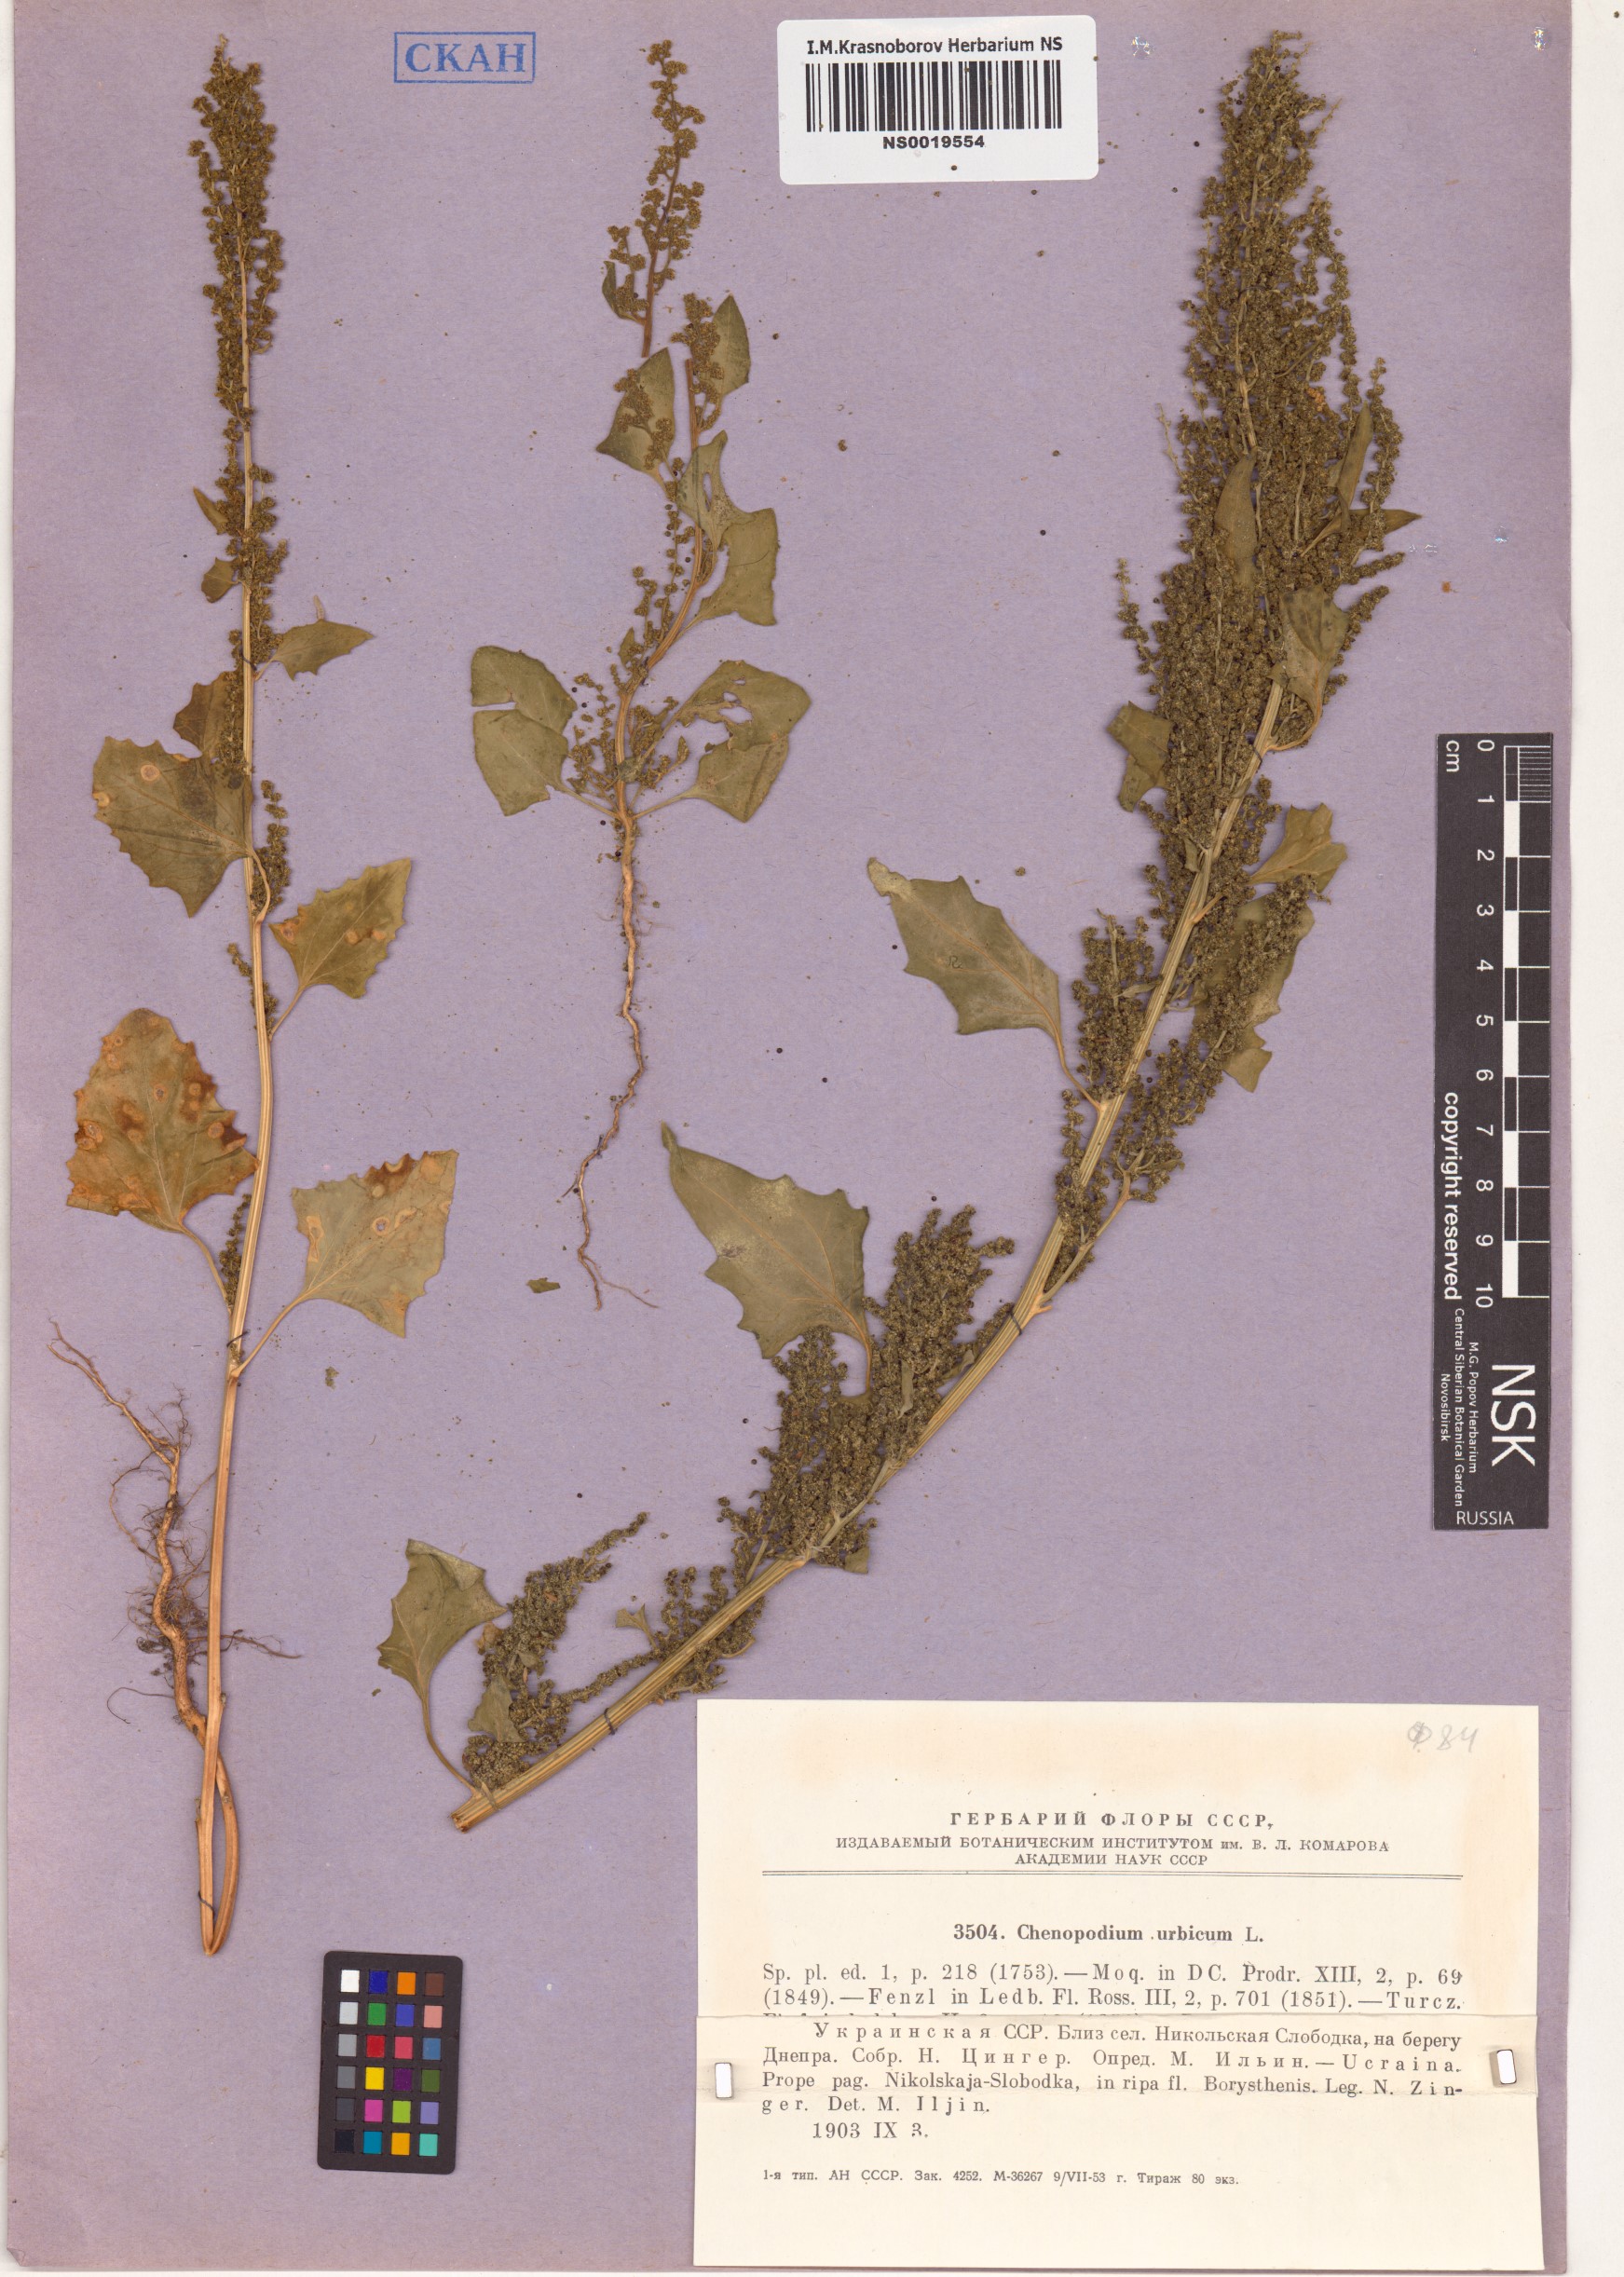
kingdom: Plantae
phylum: Tracheophyta
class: Magnoliopsida
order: Caryophyllales
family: Amaranthaceae
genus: Oxybasis
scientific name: Oxybasis urbica
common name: City goosefoot
